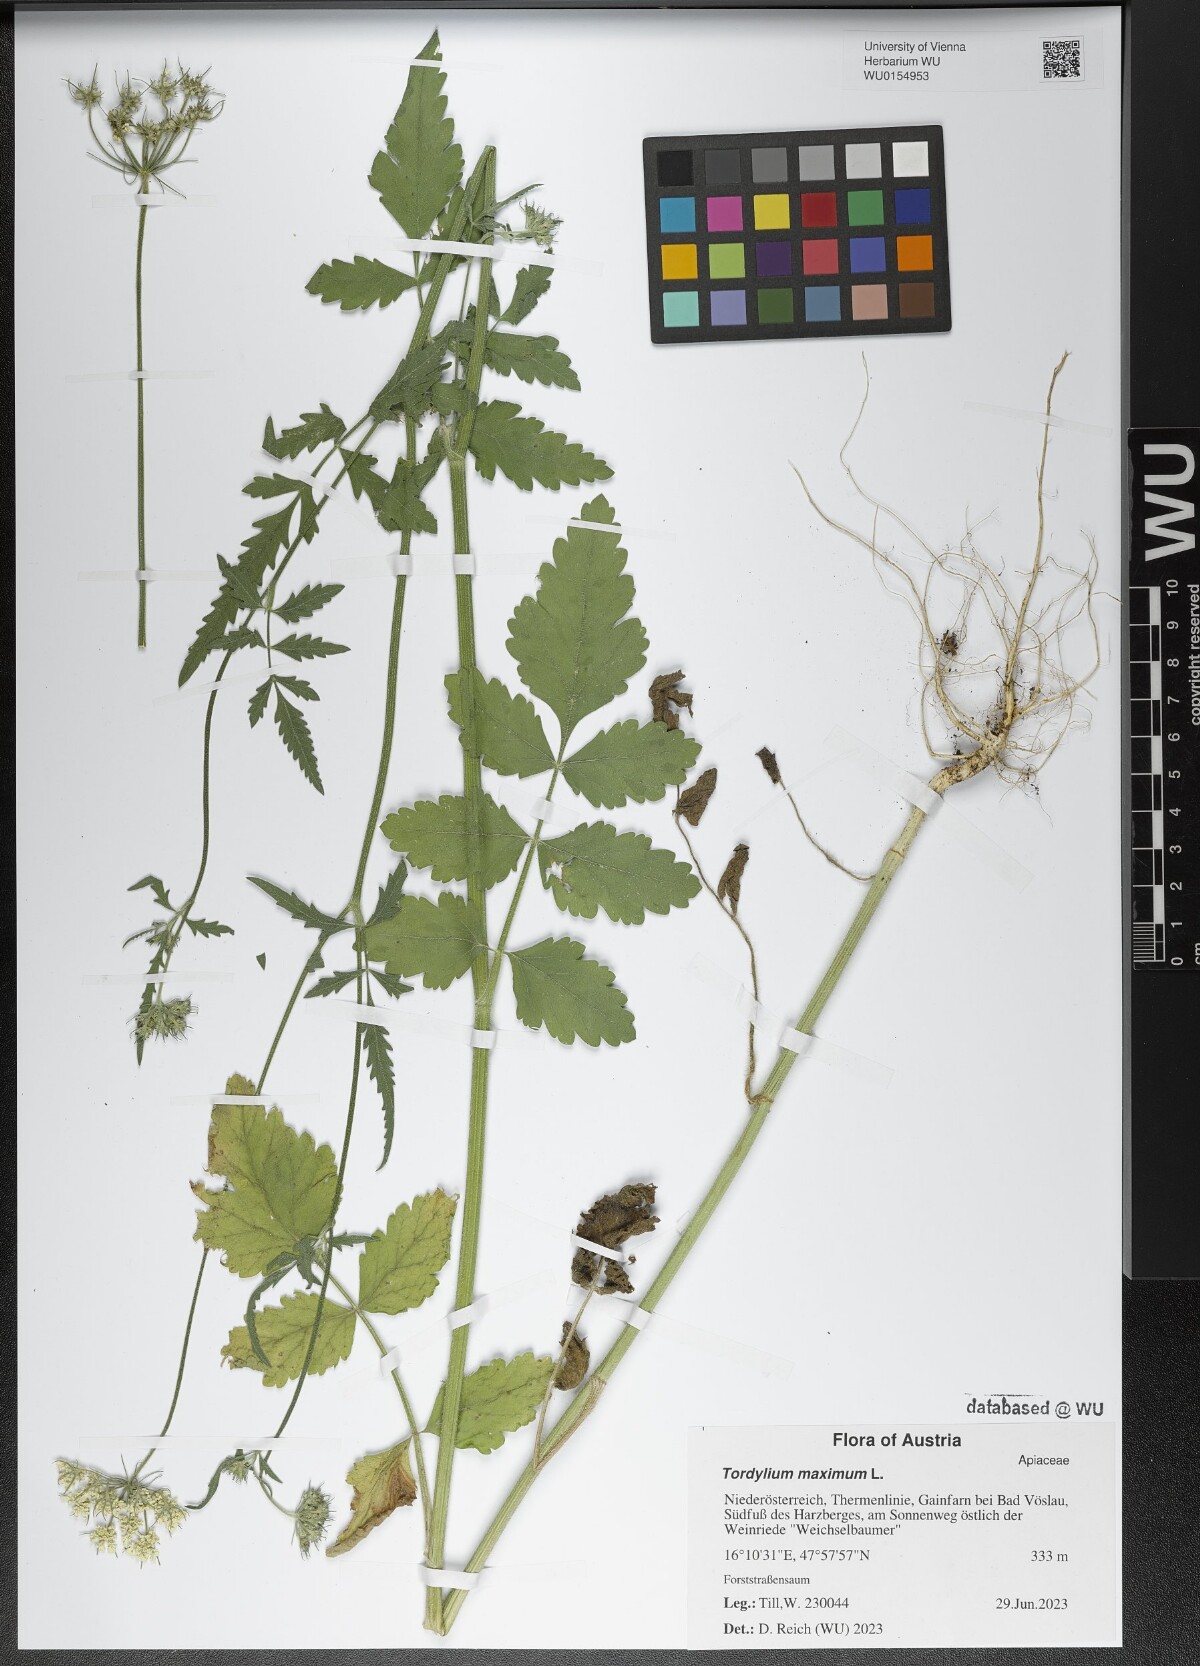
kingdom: Plantae
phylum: Tracheophyta
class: Magnoliopsida
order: Apiales
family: Apiaceae
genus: Tordylium
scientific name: Tordylium maximum
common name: Hartwort
